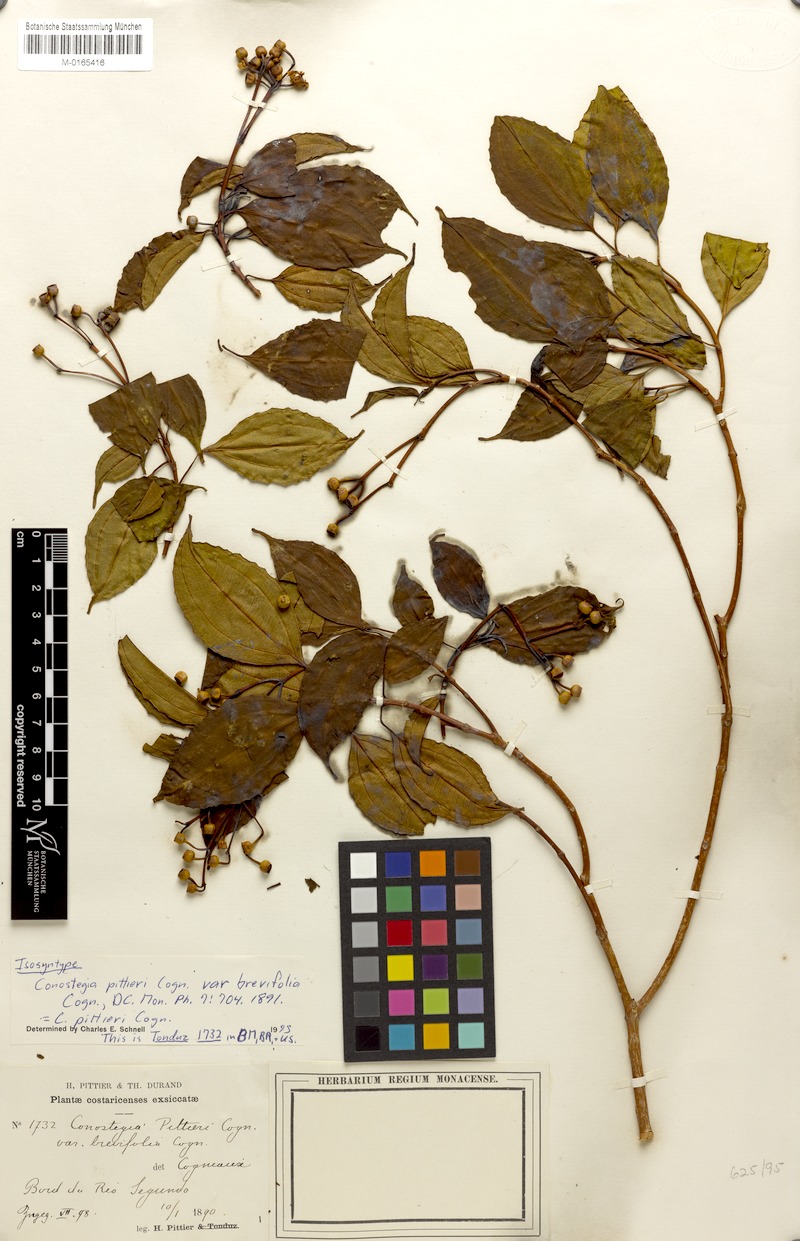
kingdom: Plantae
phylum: Tracheophyta
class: Magnoliopsida
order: Myrtales
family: Melastomataceae
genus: Miconia
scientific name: Miconia durandii
